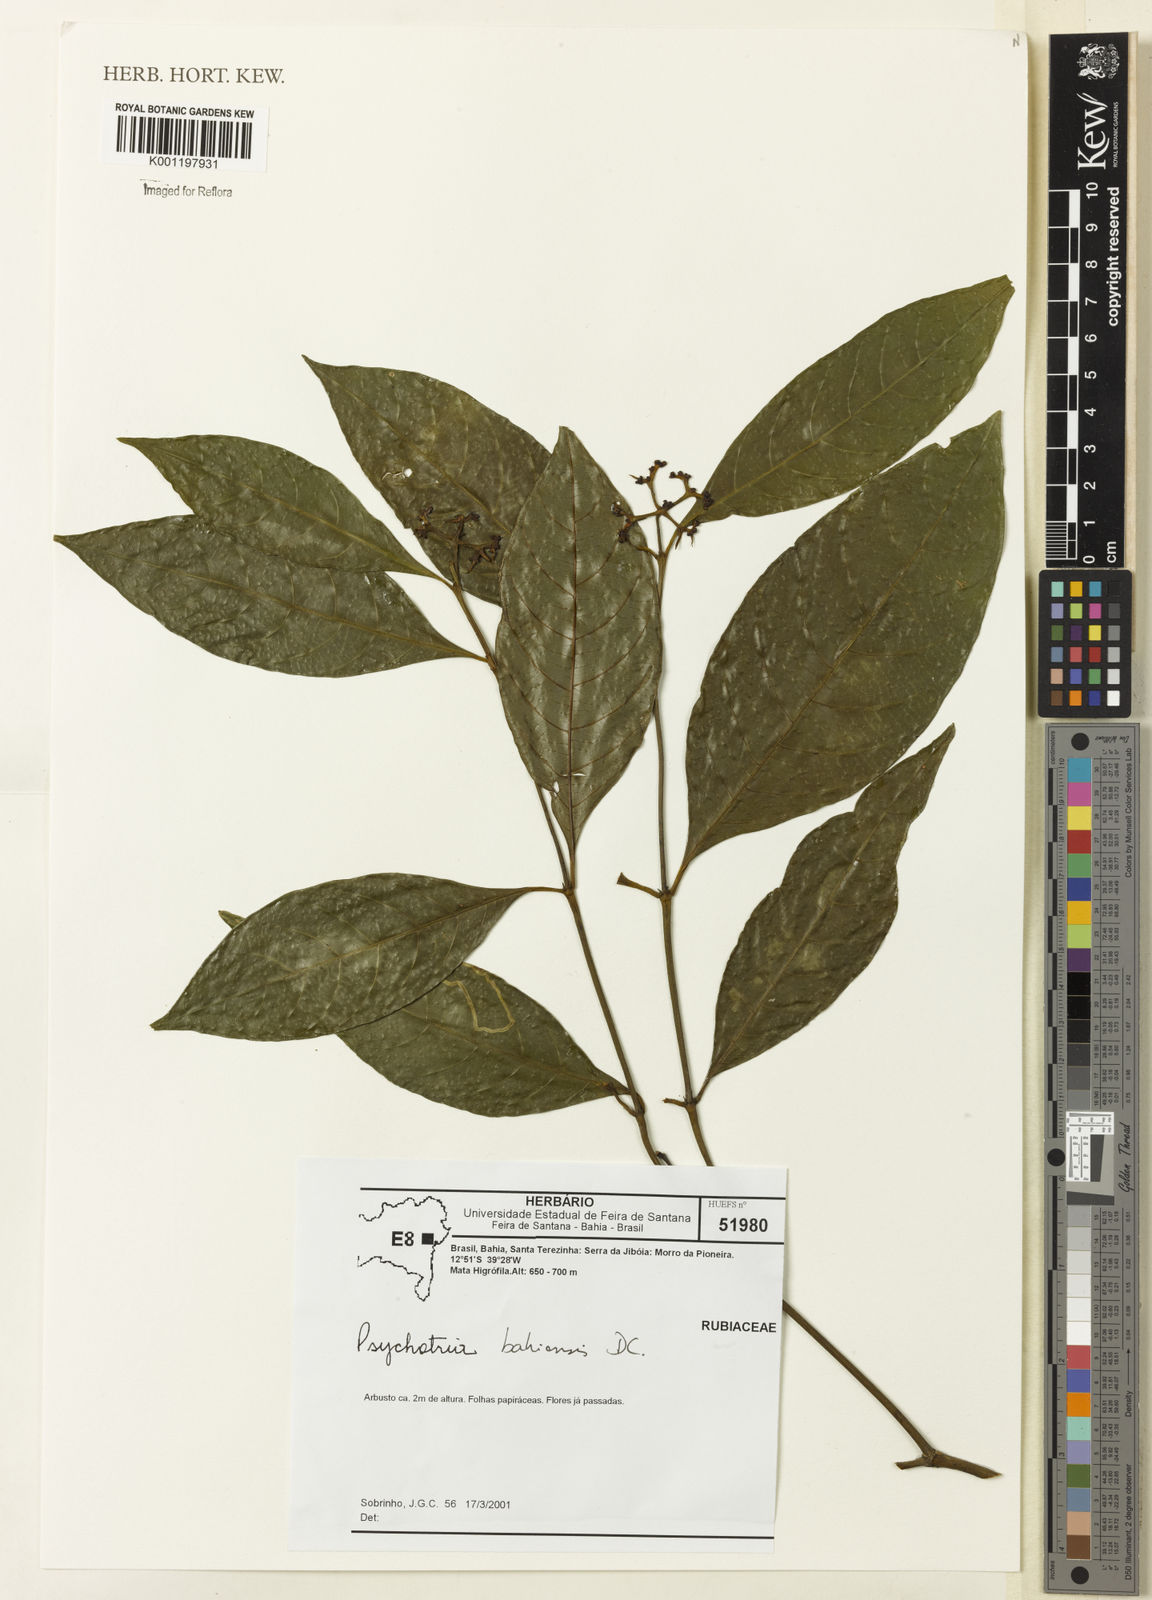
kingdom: Plantae
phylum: Tracheophyta
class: Magnoliopsida
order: Gentianales
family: Rubiaceae
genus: Psychotria
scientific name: Psychotria bahiensis
